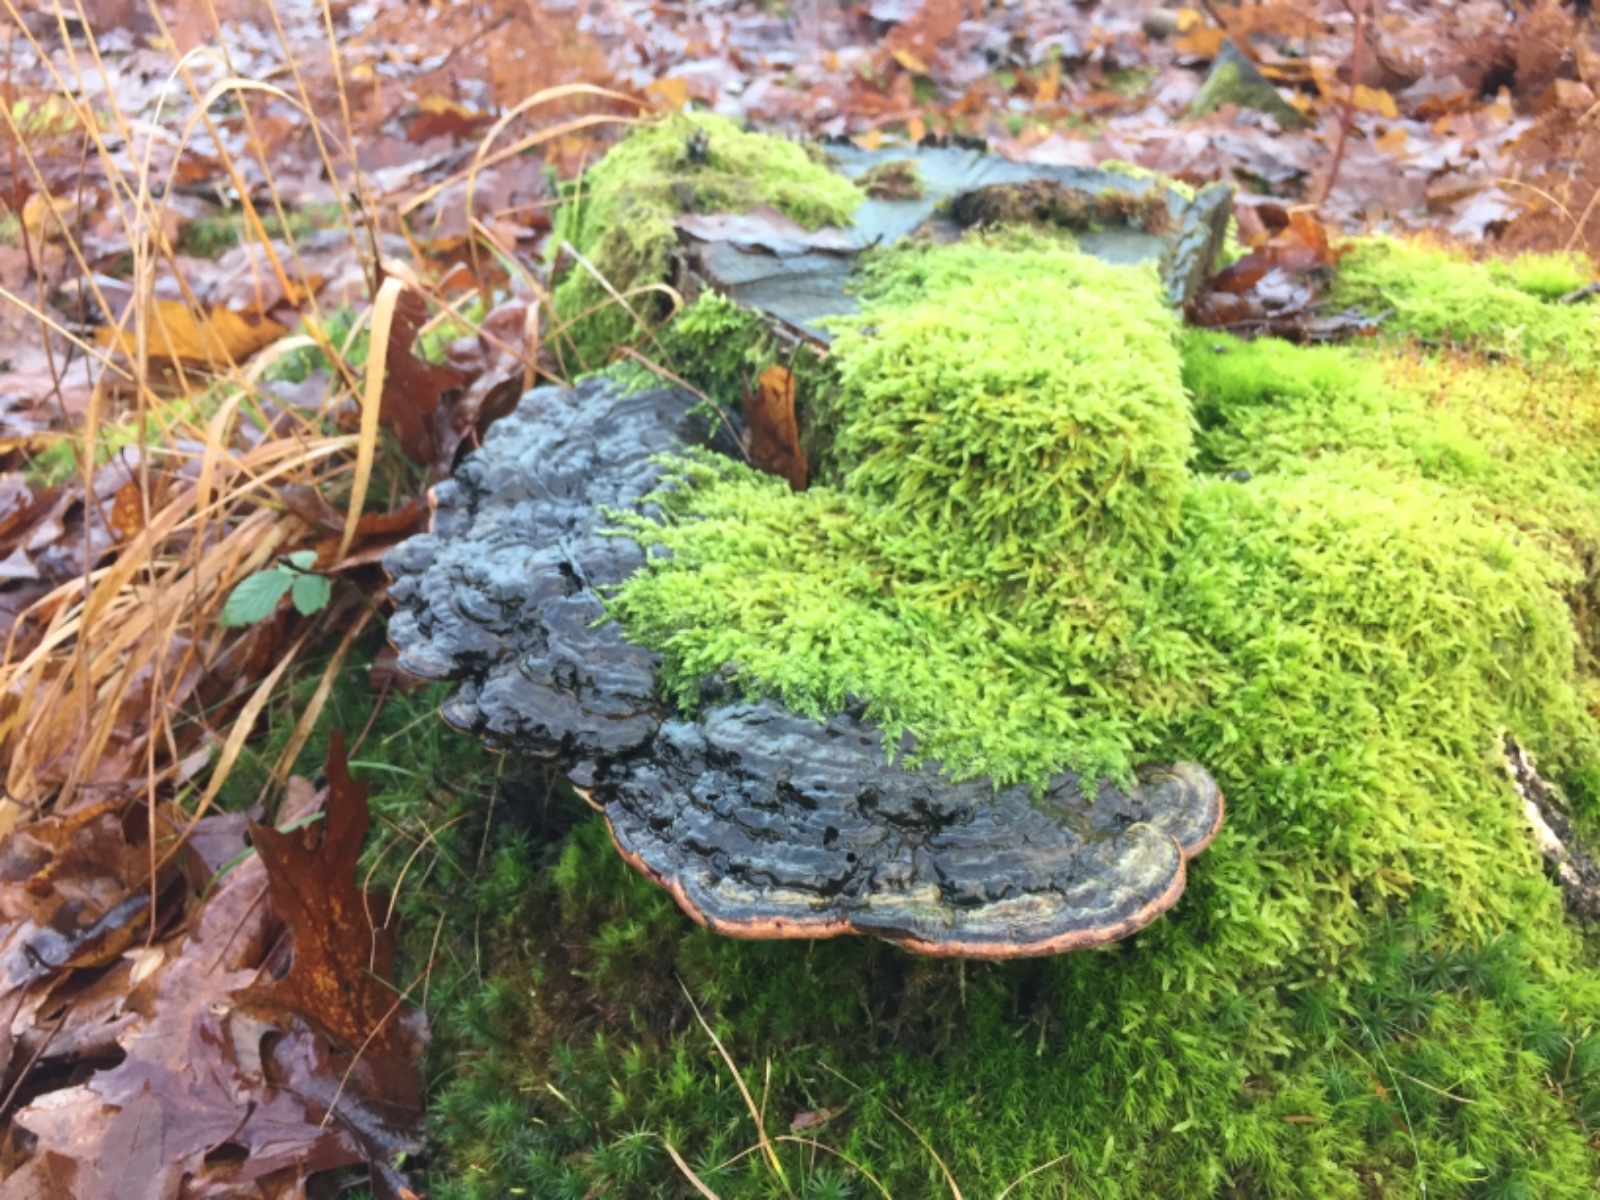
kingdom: Fungi
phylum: Basidiomycota
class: Agaricomycetes
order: Polyporales
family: Polyporaceae
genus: Ganoderma
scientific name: Ganoderma applanatum
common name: flad lakporesvamp
